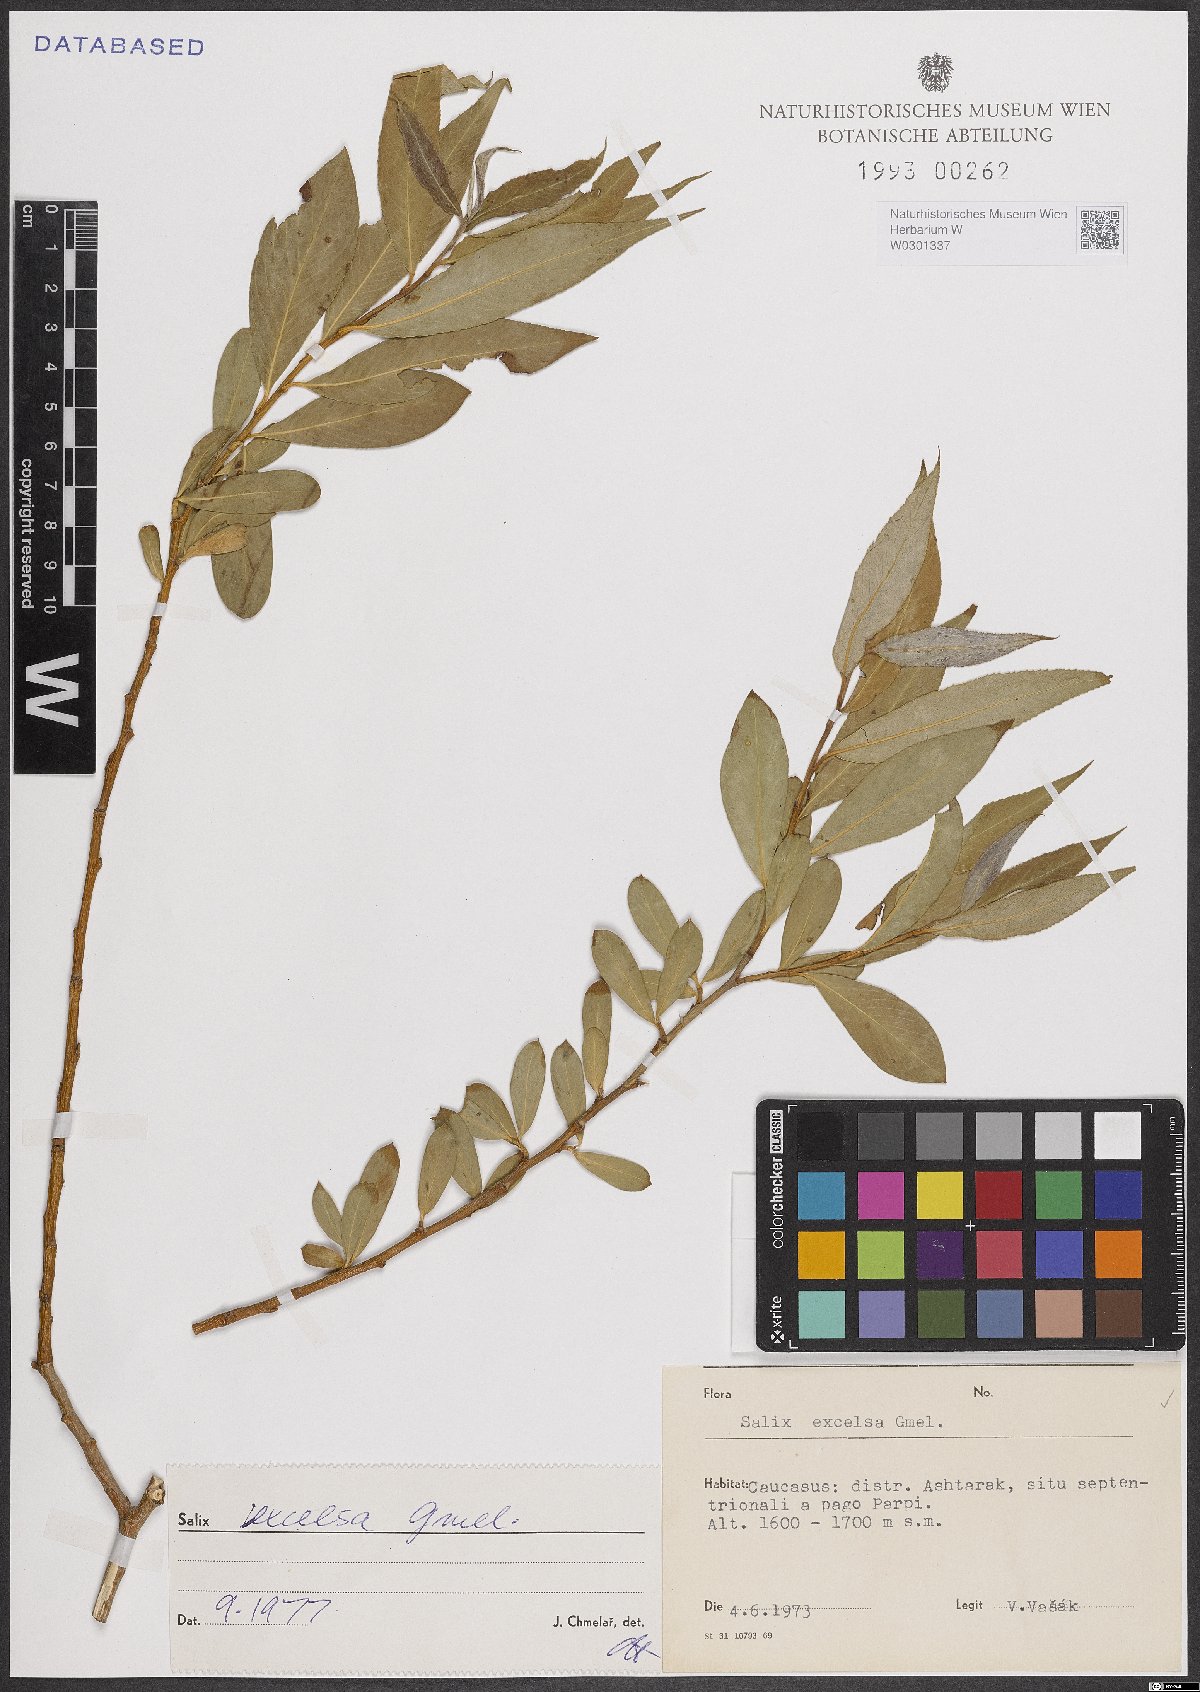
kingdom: Plantae
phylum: Tracheophyta
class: Magnoliopsida
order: Malpighiales
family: Salicaceae
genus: Salix
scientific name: Salix excelsa
